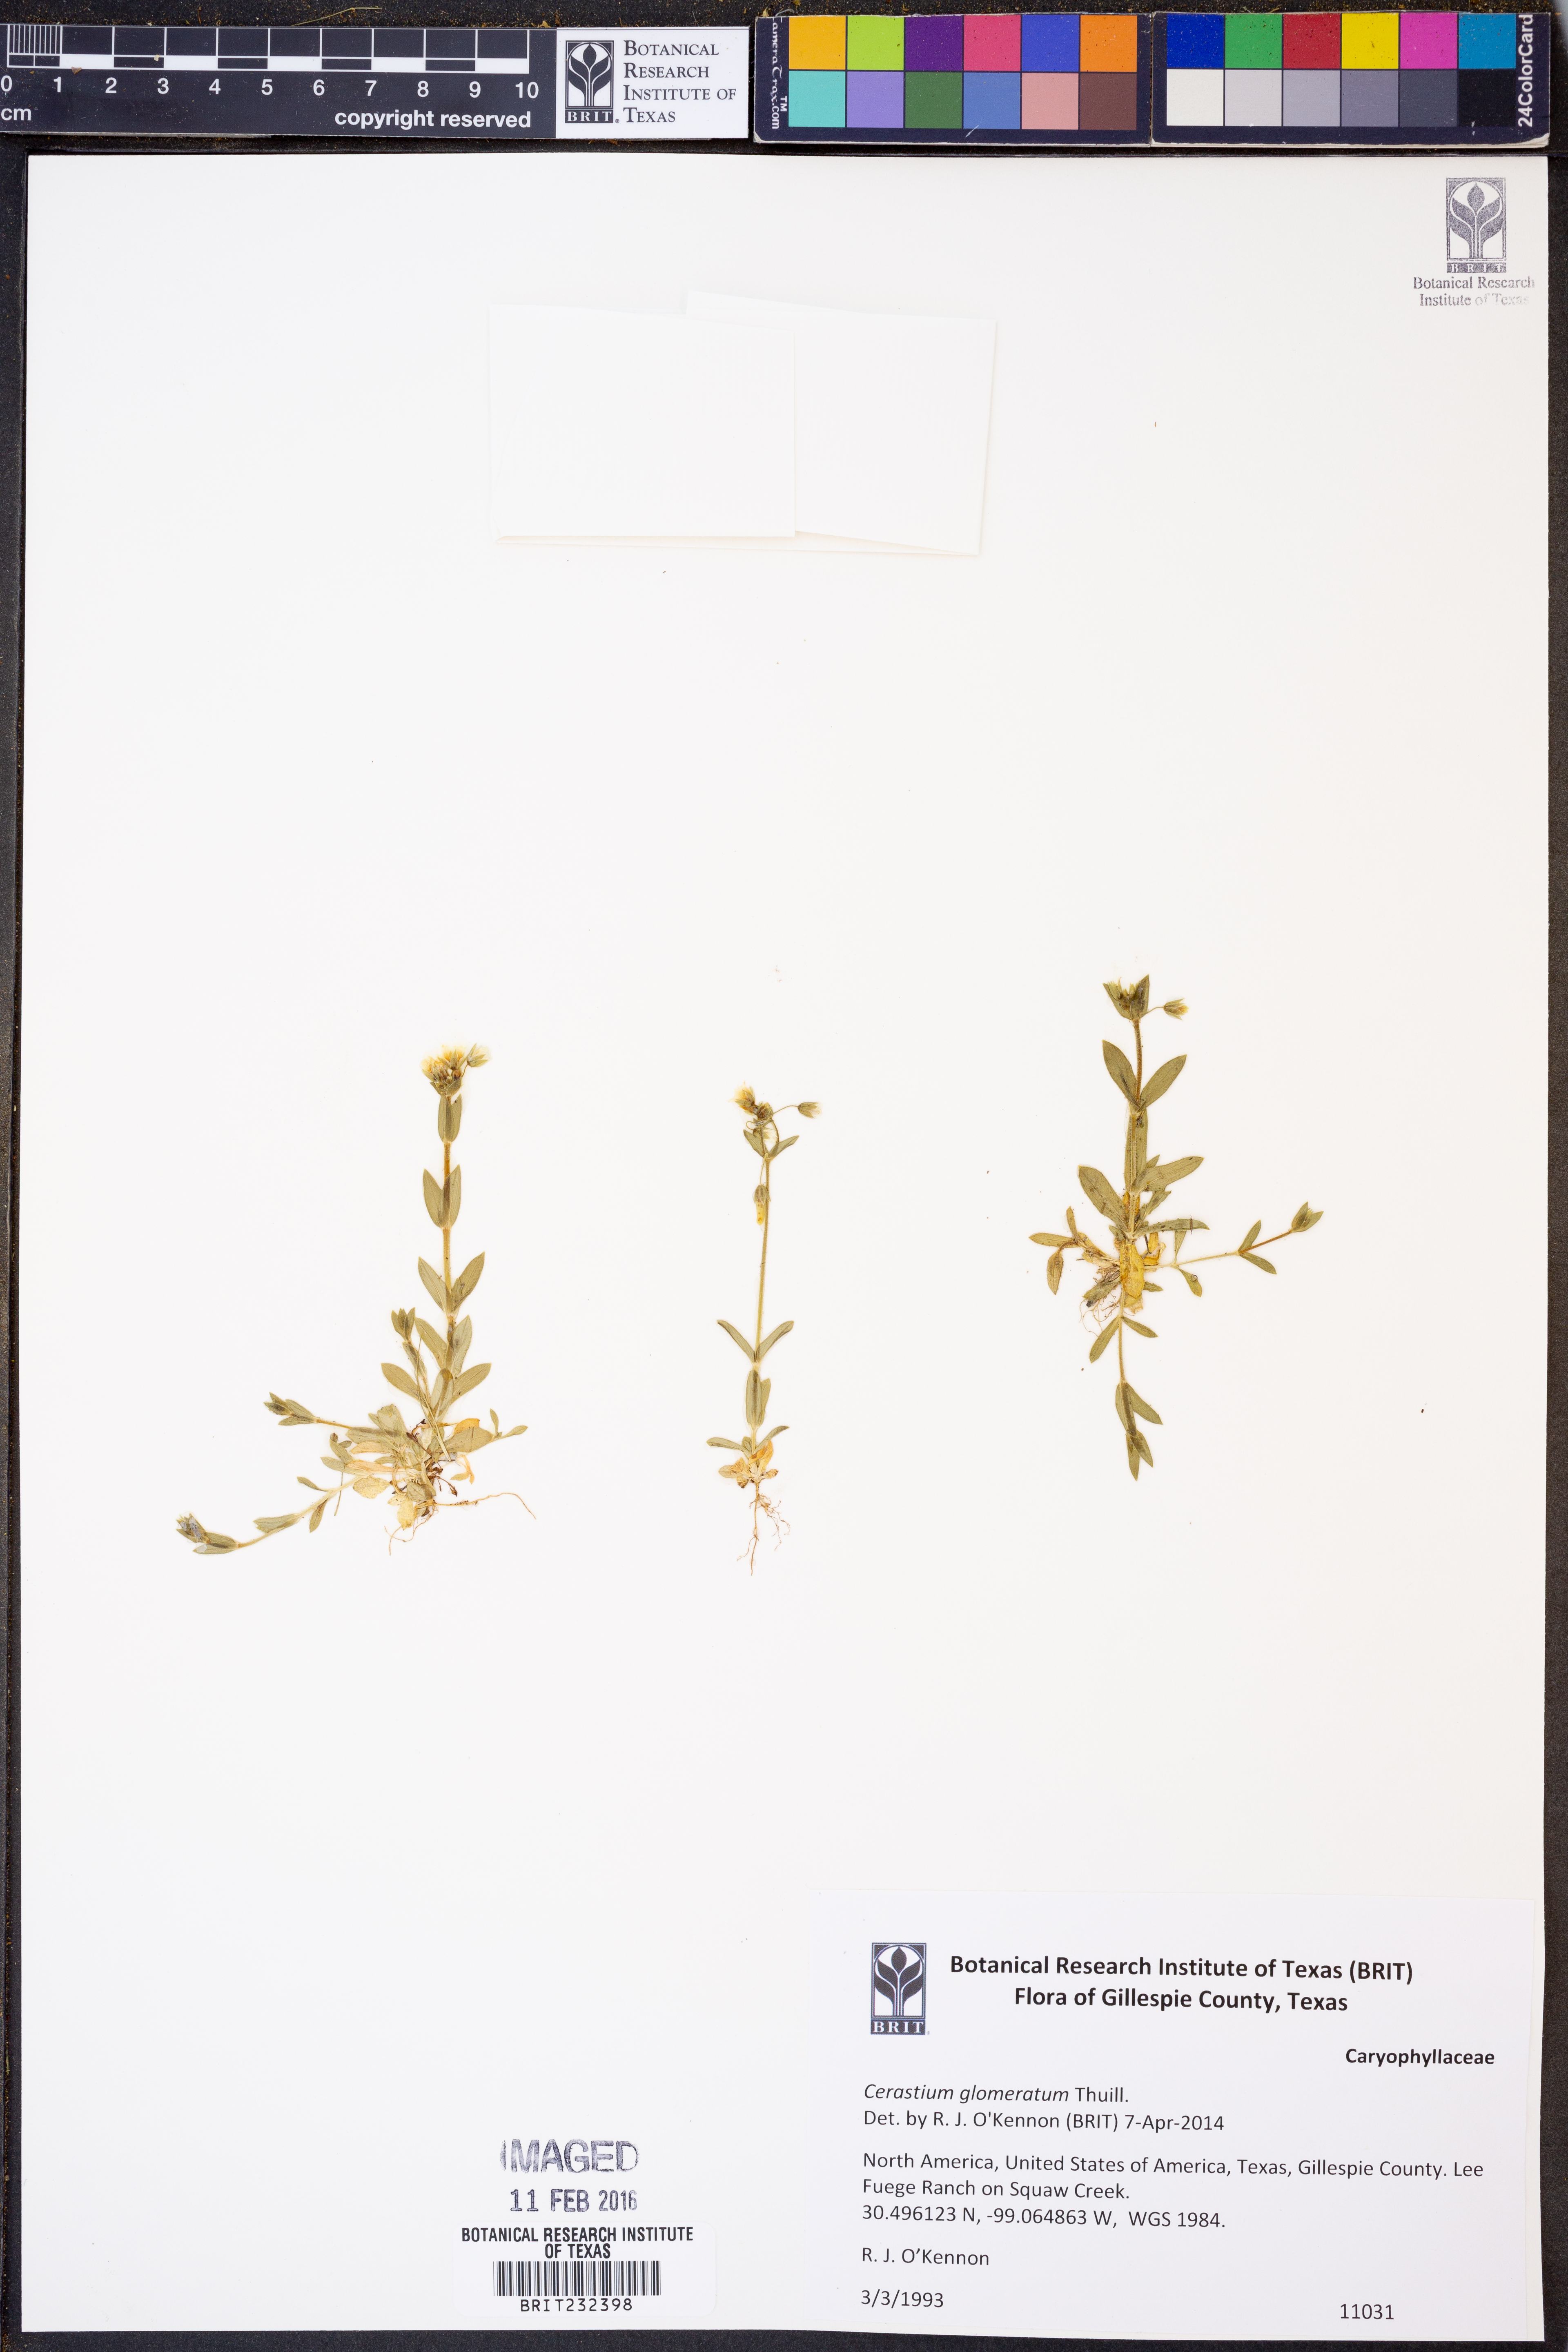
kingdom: Plantae
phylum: Tracheophyta
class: Magnoliopsida
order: Caryophyllales
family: Caryophyllaceae
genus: Cerastium
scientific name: Cerastium glomeratum
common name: Sticky chickweed
